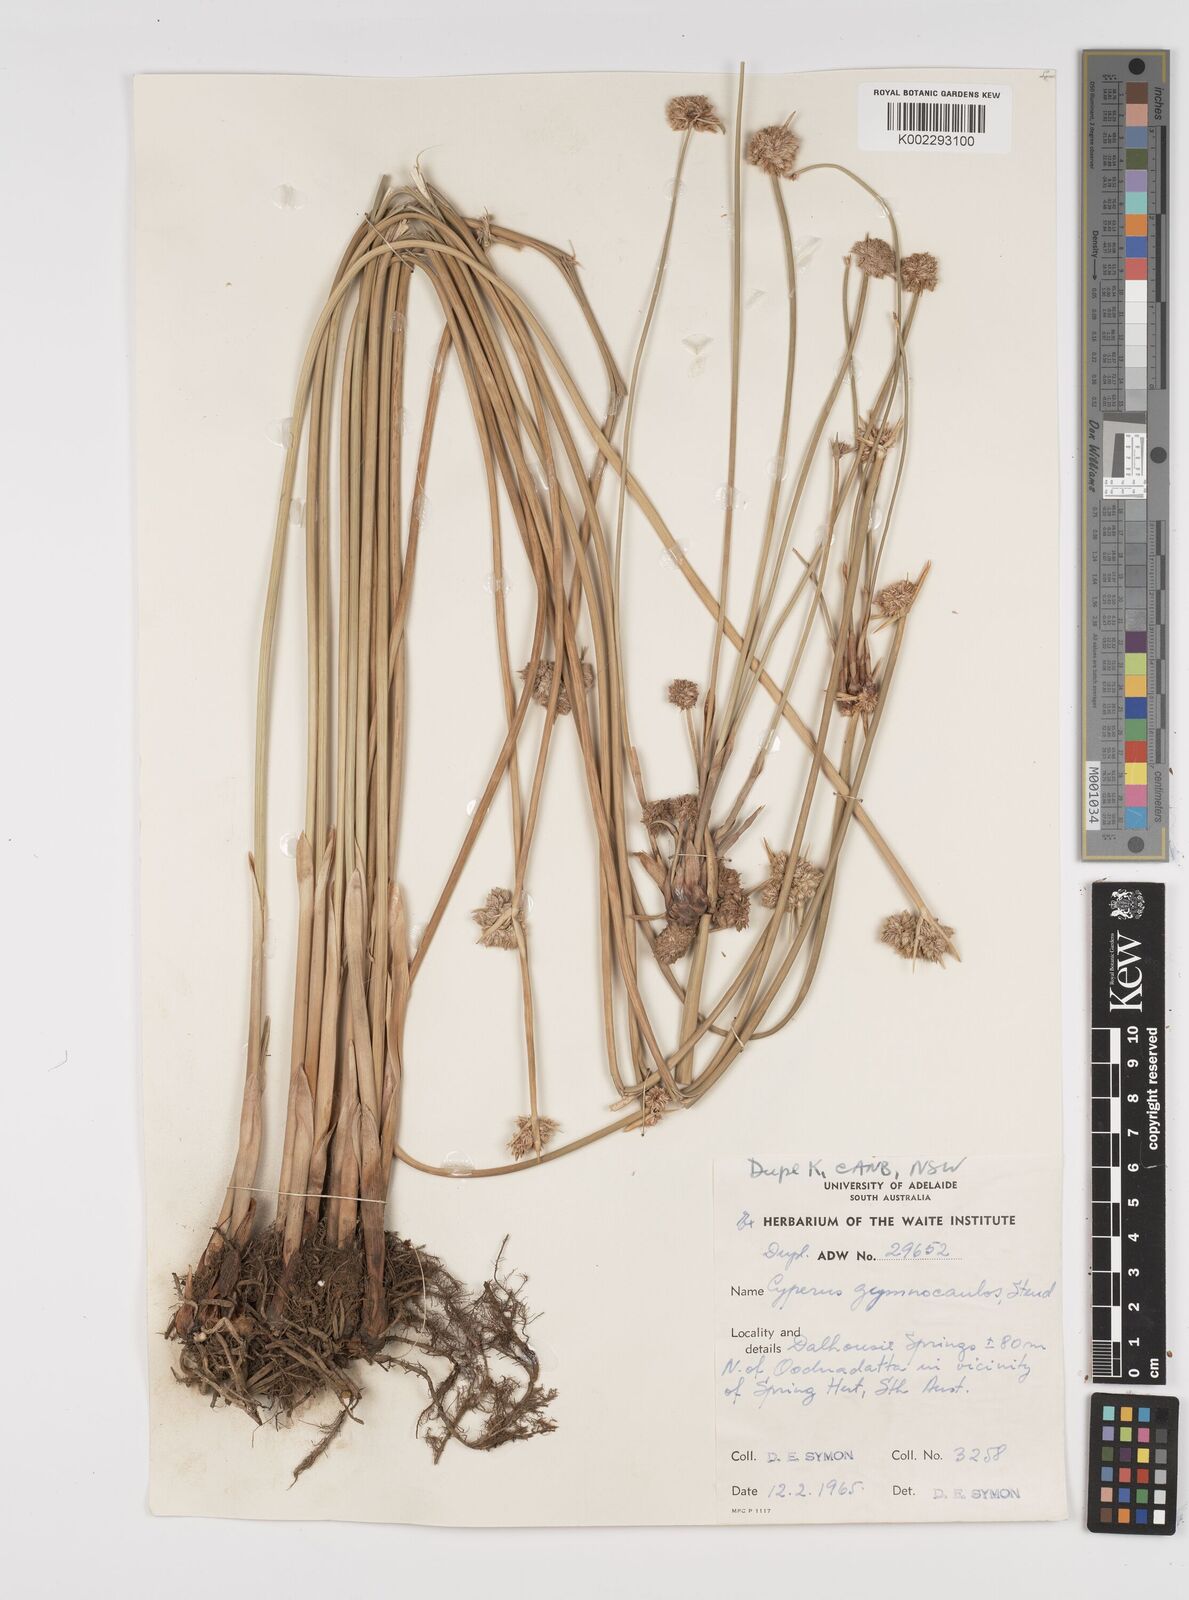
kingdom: Plantae
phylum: Tracheophyta
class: Liliopsida
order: Poales
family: Cyperaceae
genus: Cyperus
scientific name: Cyperus gymnocaulos
